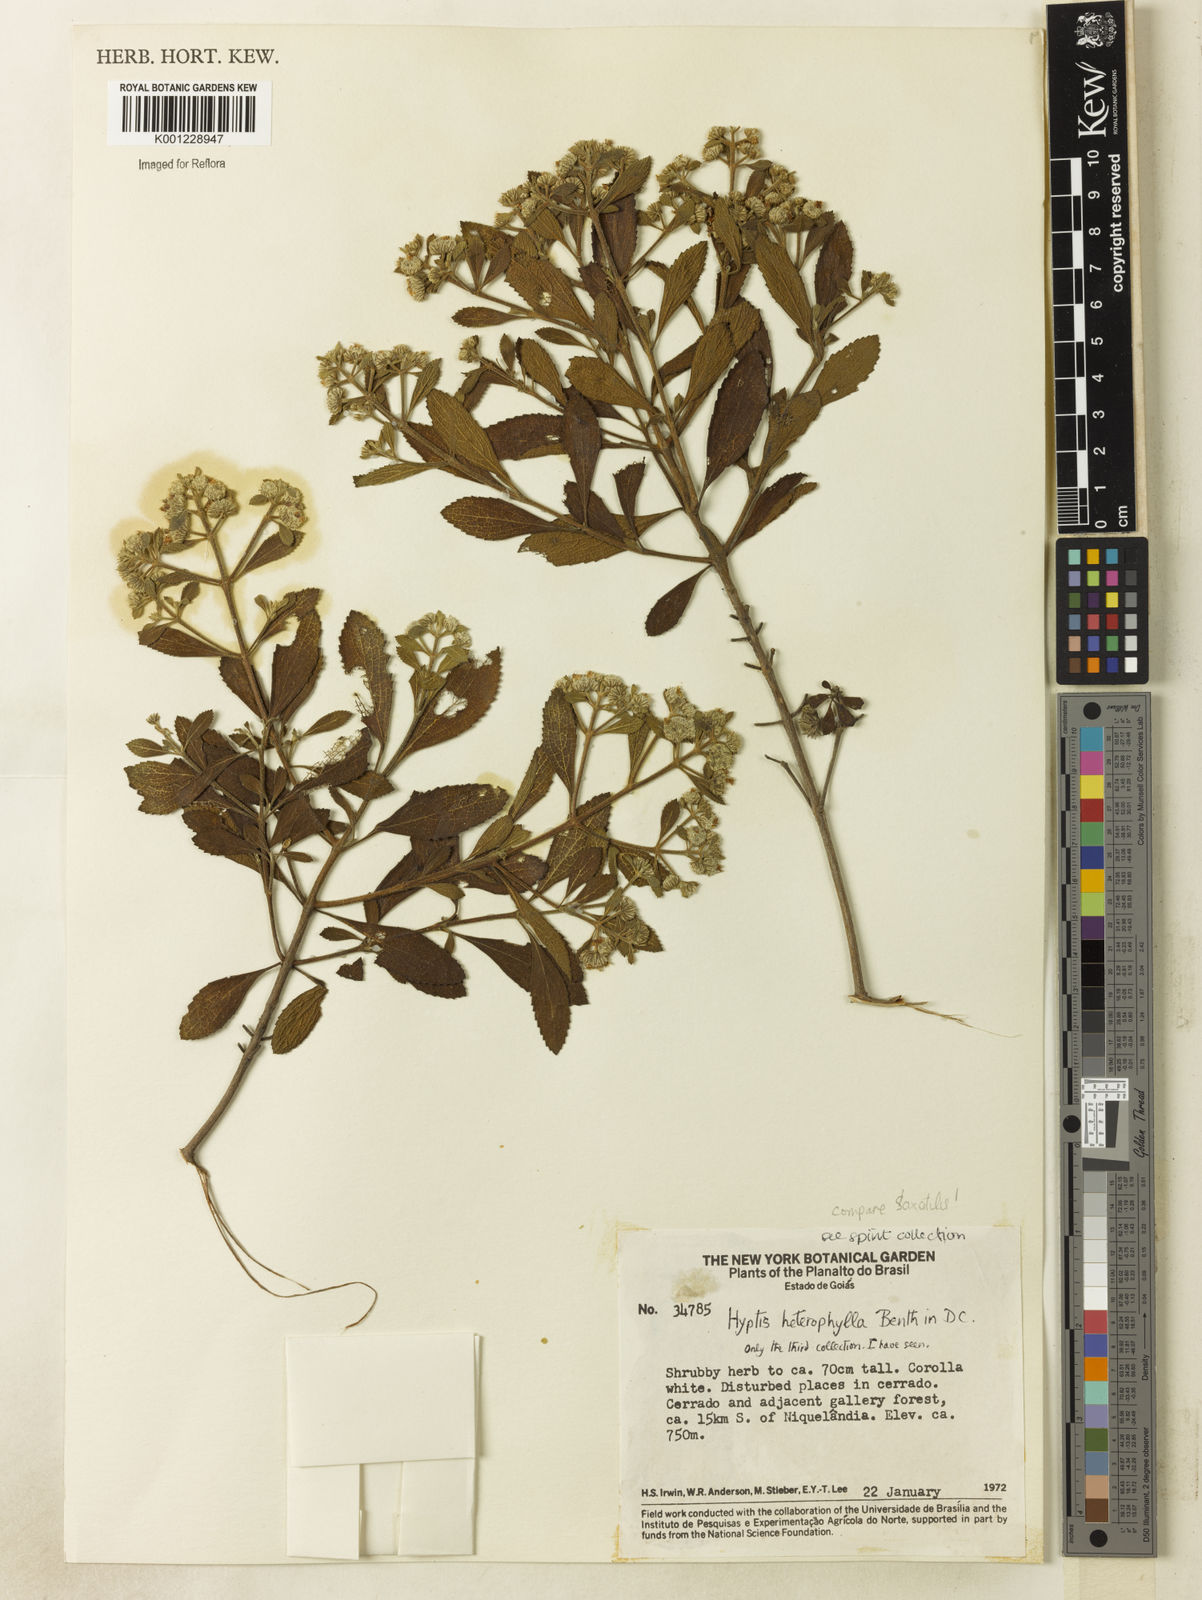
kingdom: Plantae
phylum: Tracheophyta
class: Magnoliopsida
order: Lamiales
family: Lamiaceae
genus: Hyptis
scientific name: Hyptis heterophylla
